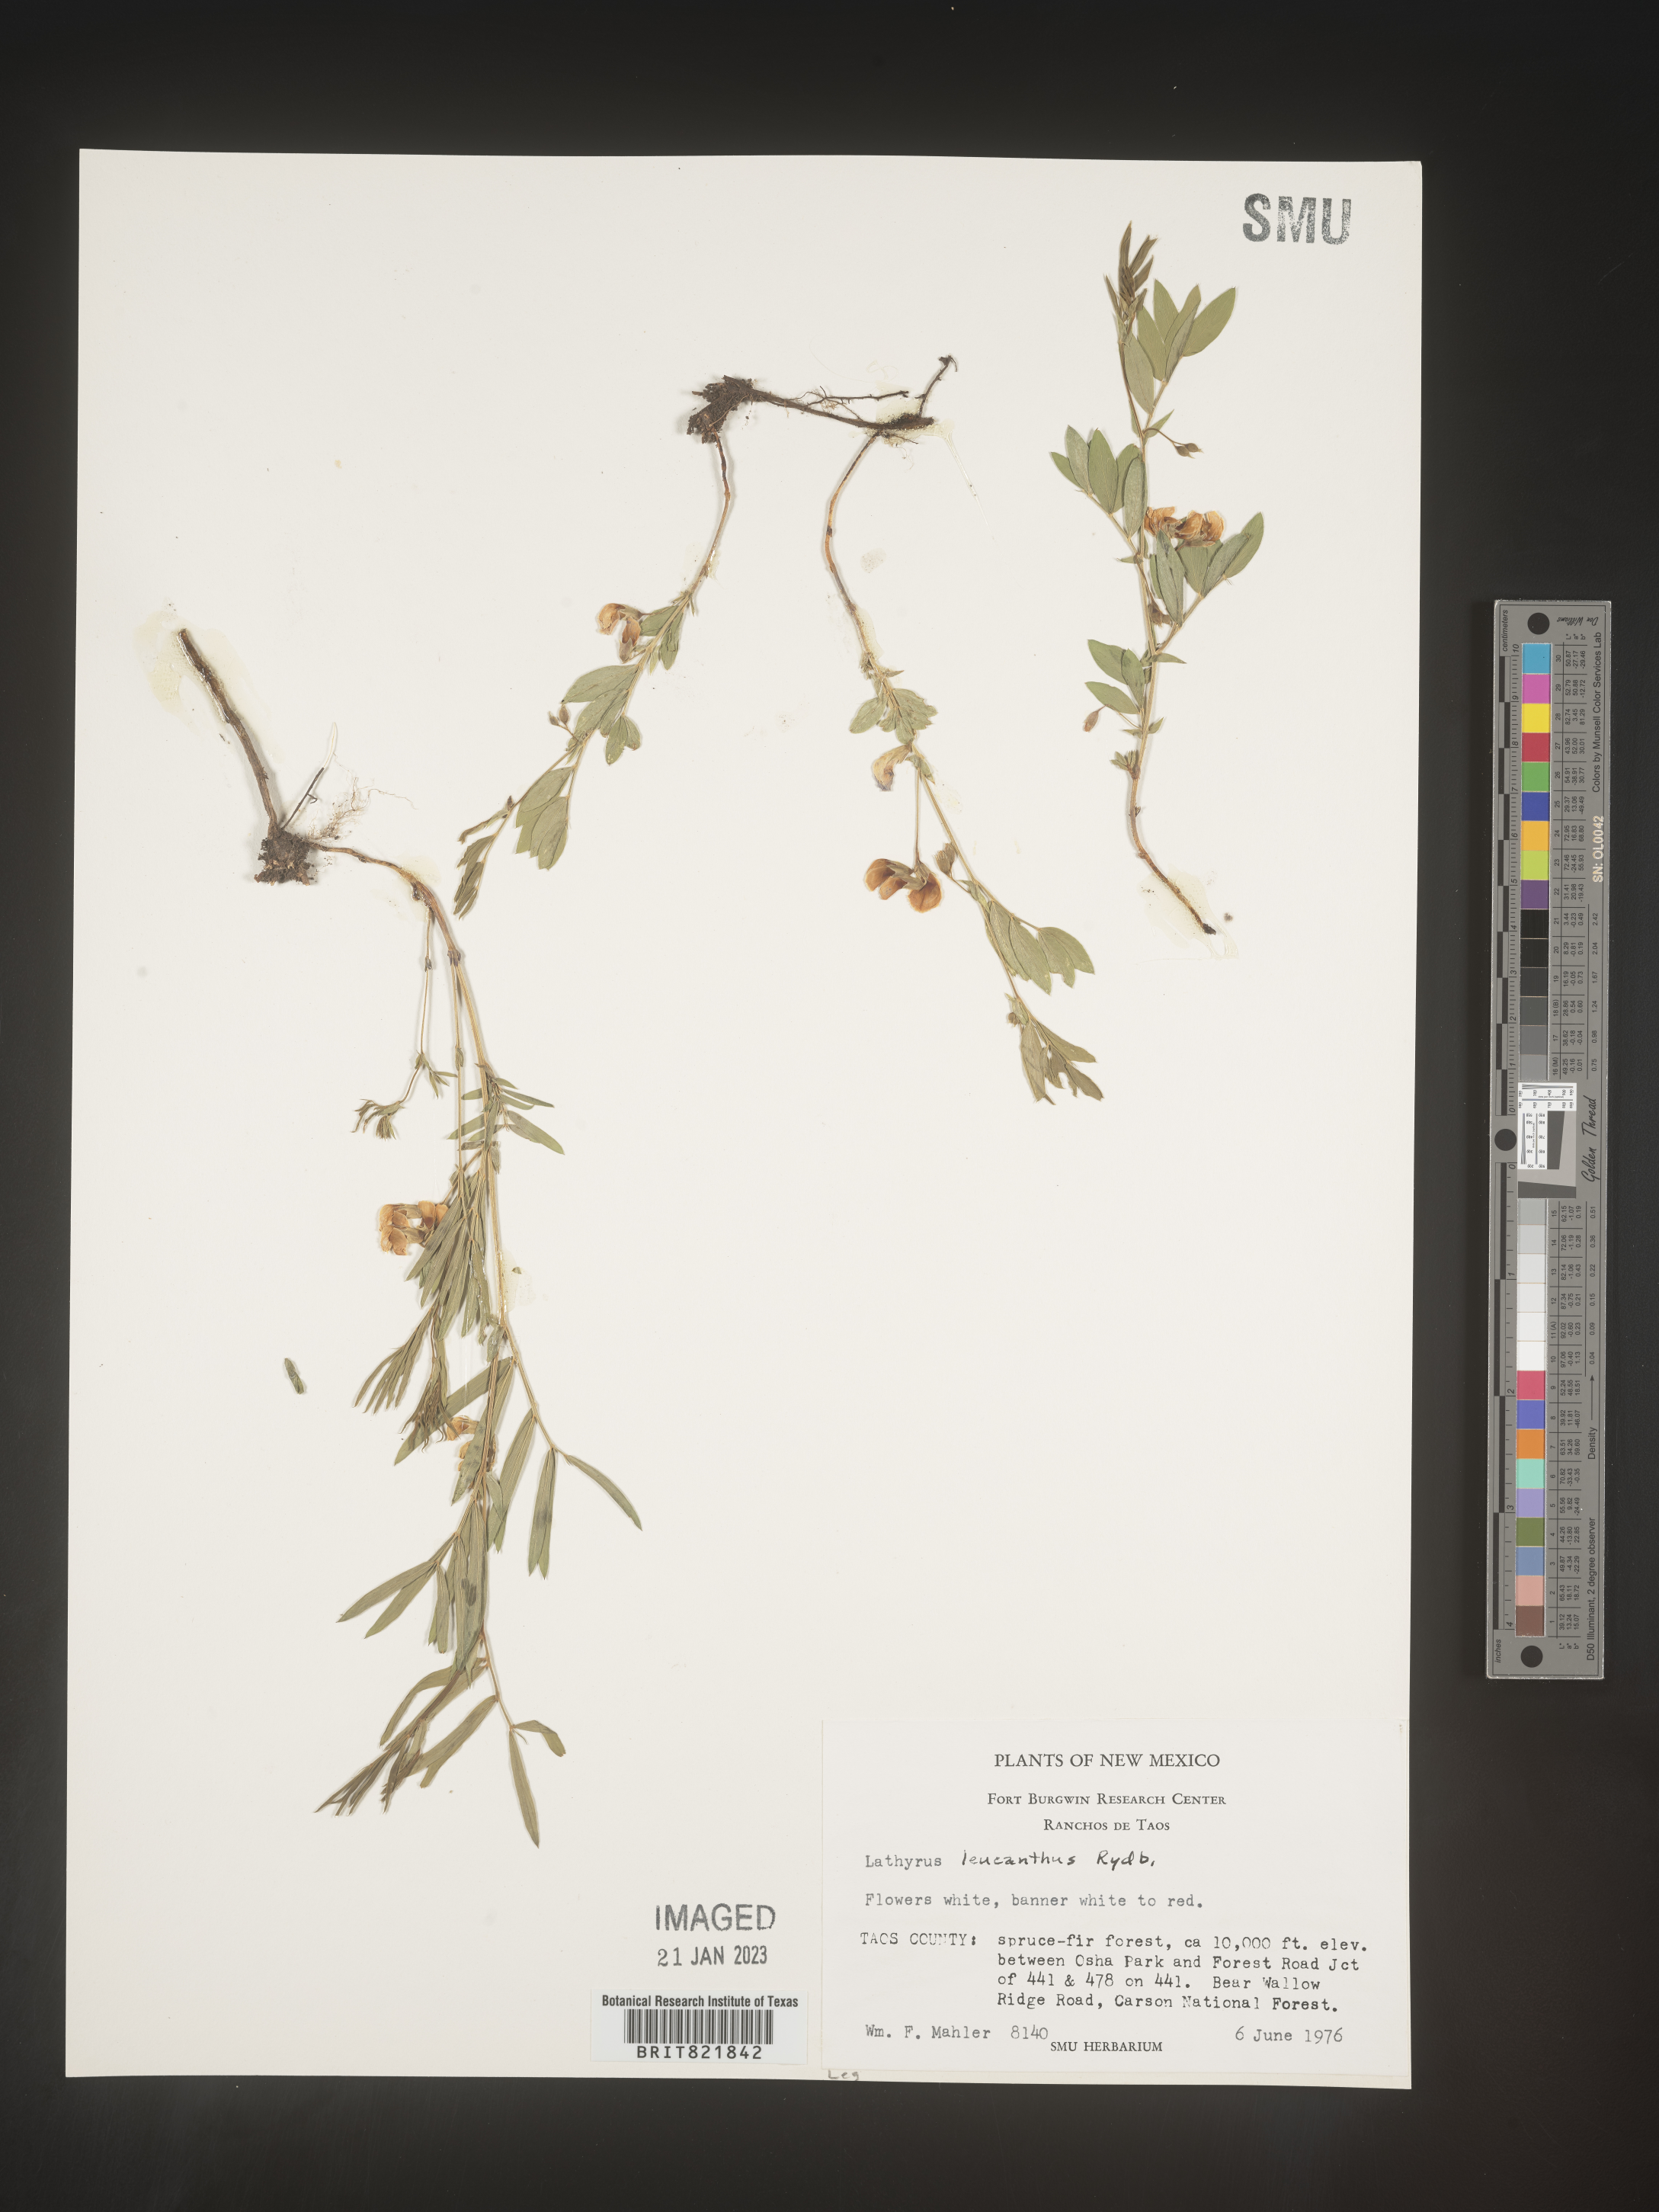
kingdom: Plantae
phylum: Tracheophyta
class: Magnoliopsida
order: Fabales
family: Fabaceae
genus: Lathyrus
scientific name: Lathyrus
